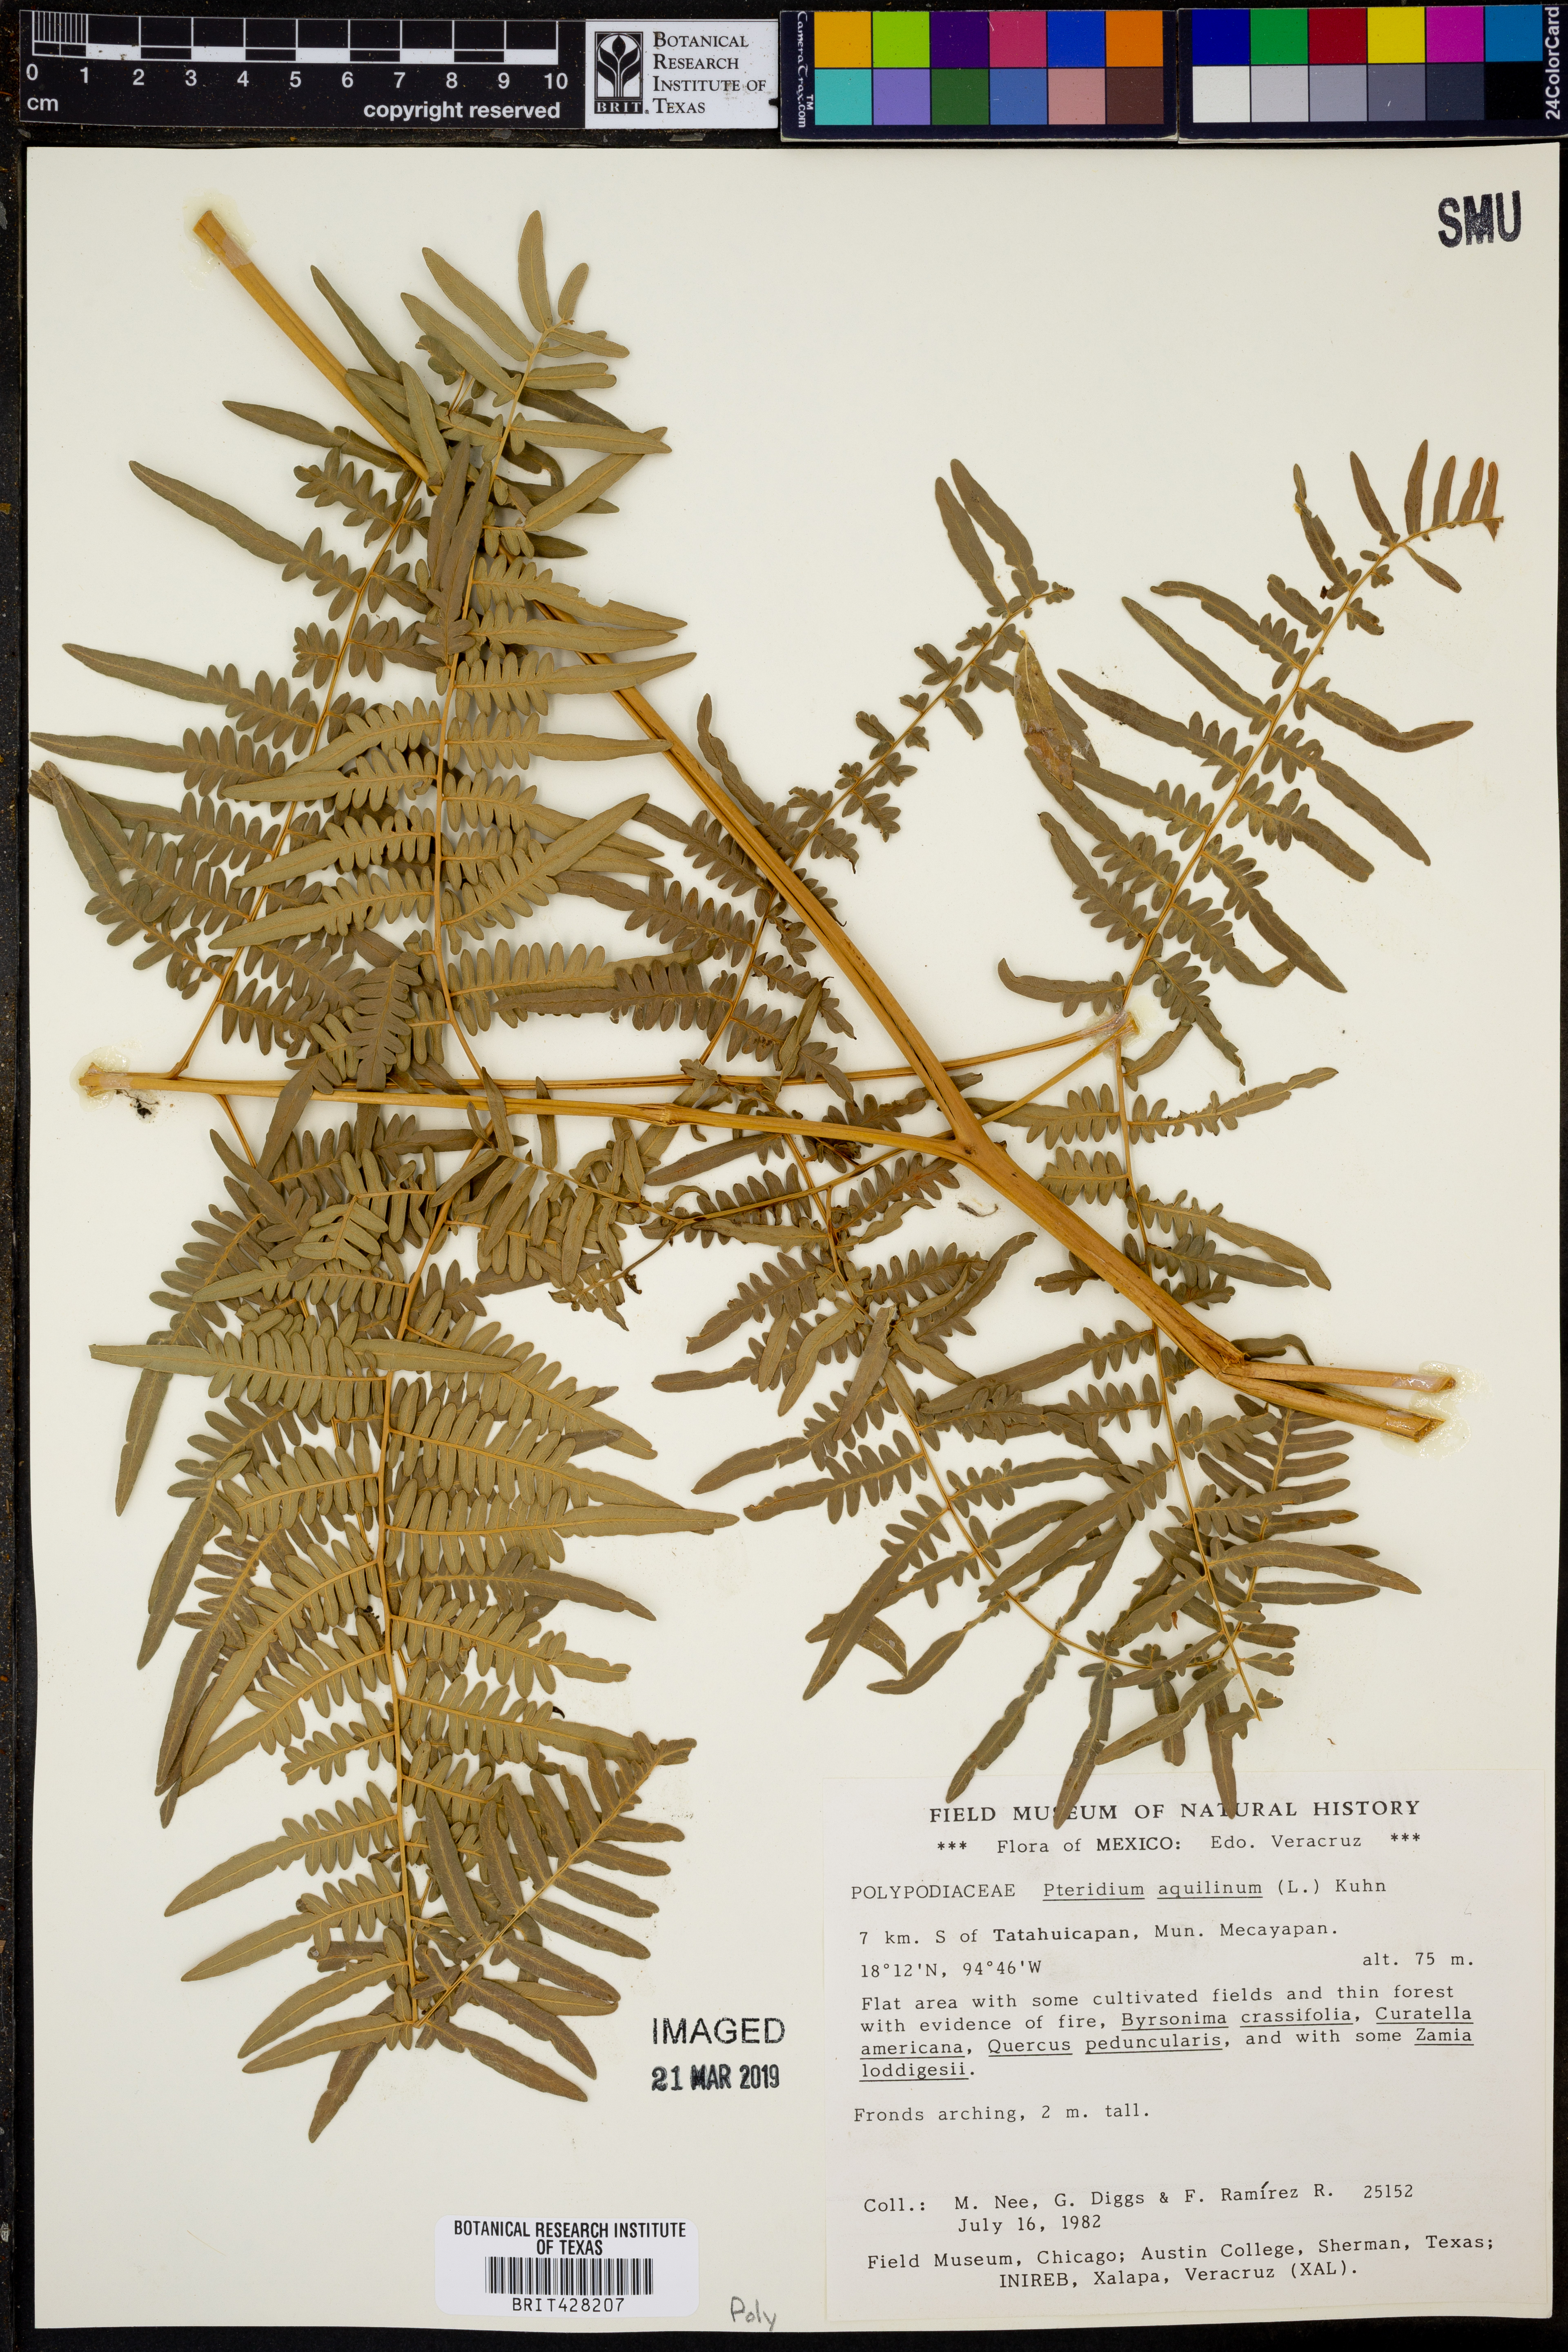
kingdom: Plantae
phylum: Tracheophyta
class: Polypodiopsida
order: Polypodiales
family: Dennstaedtiaceae
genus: Pteridium
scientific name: Pteridium aquilinum
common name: Bracken
